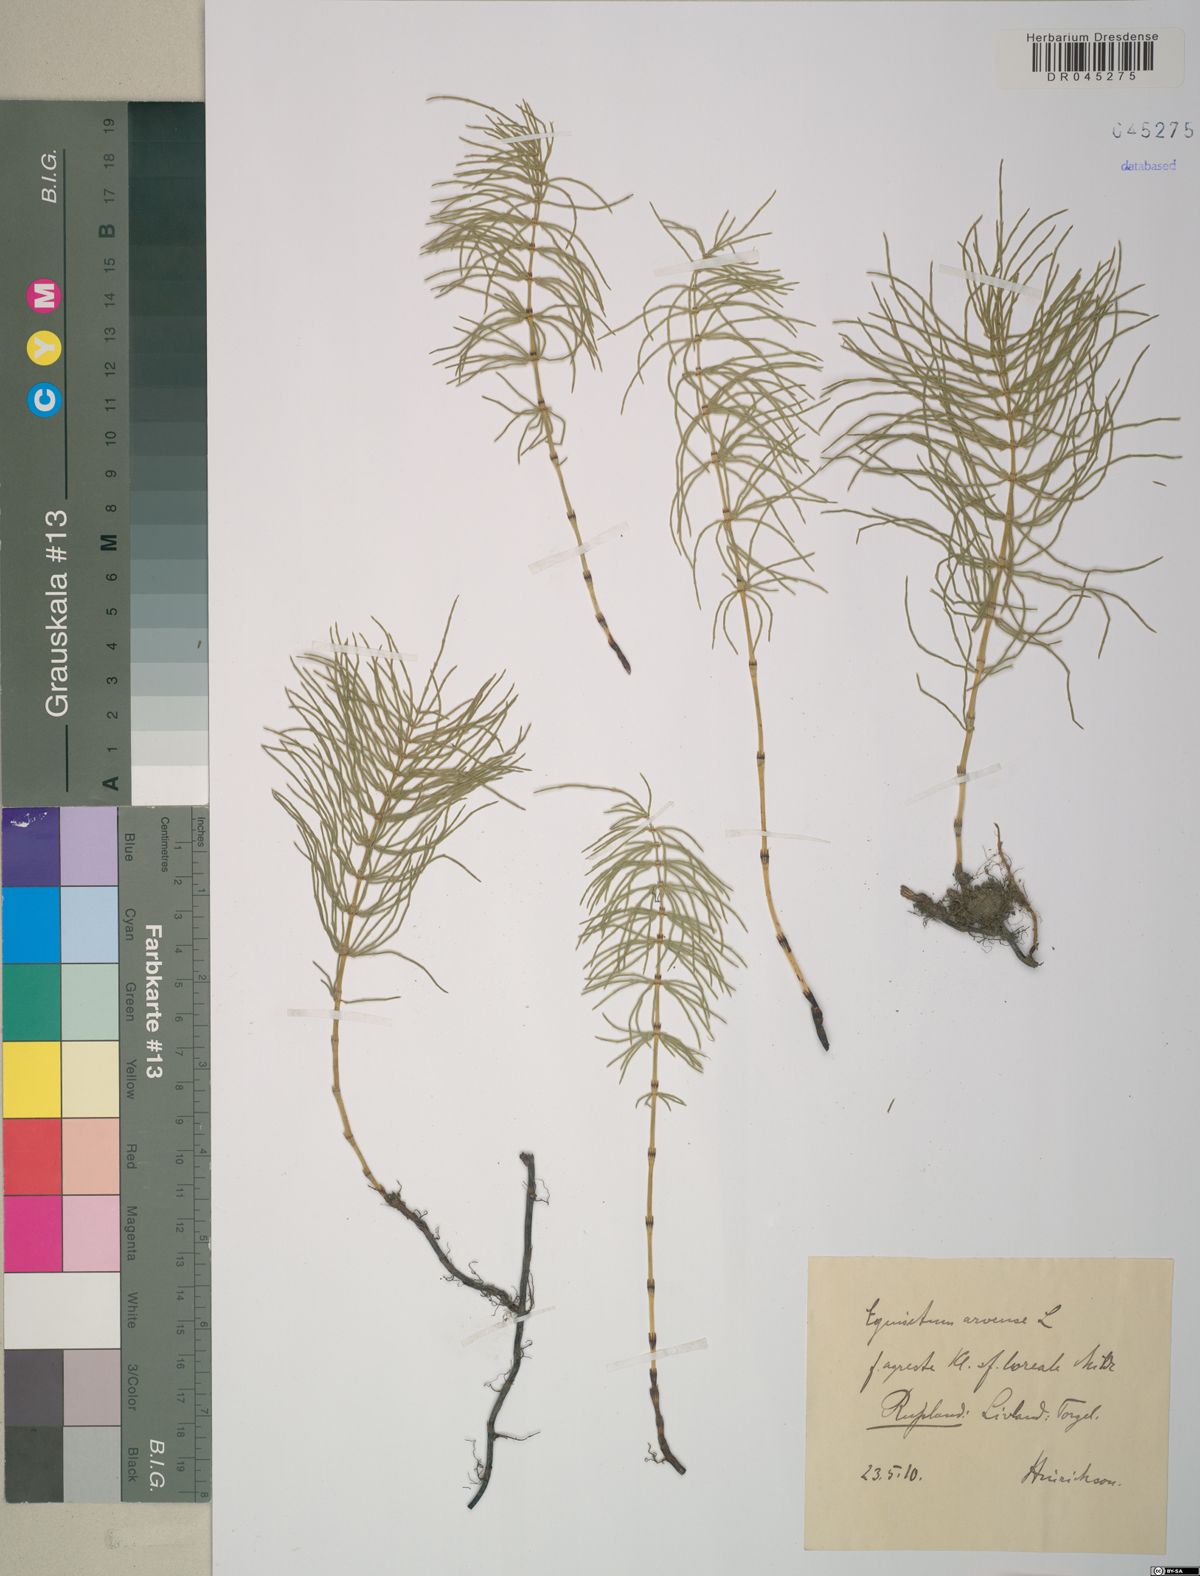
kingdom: Plantae
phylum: Tracheophyta
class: Polypodiopsida
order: Equisetales
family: Equisetaceae
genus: Equisetum
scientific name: Equisetum arvense
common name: Field horsetail
